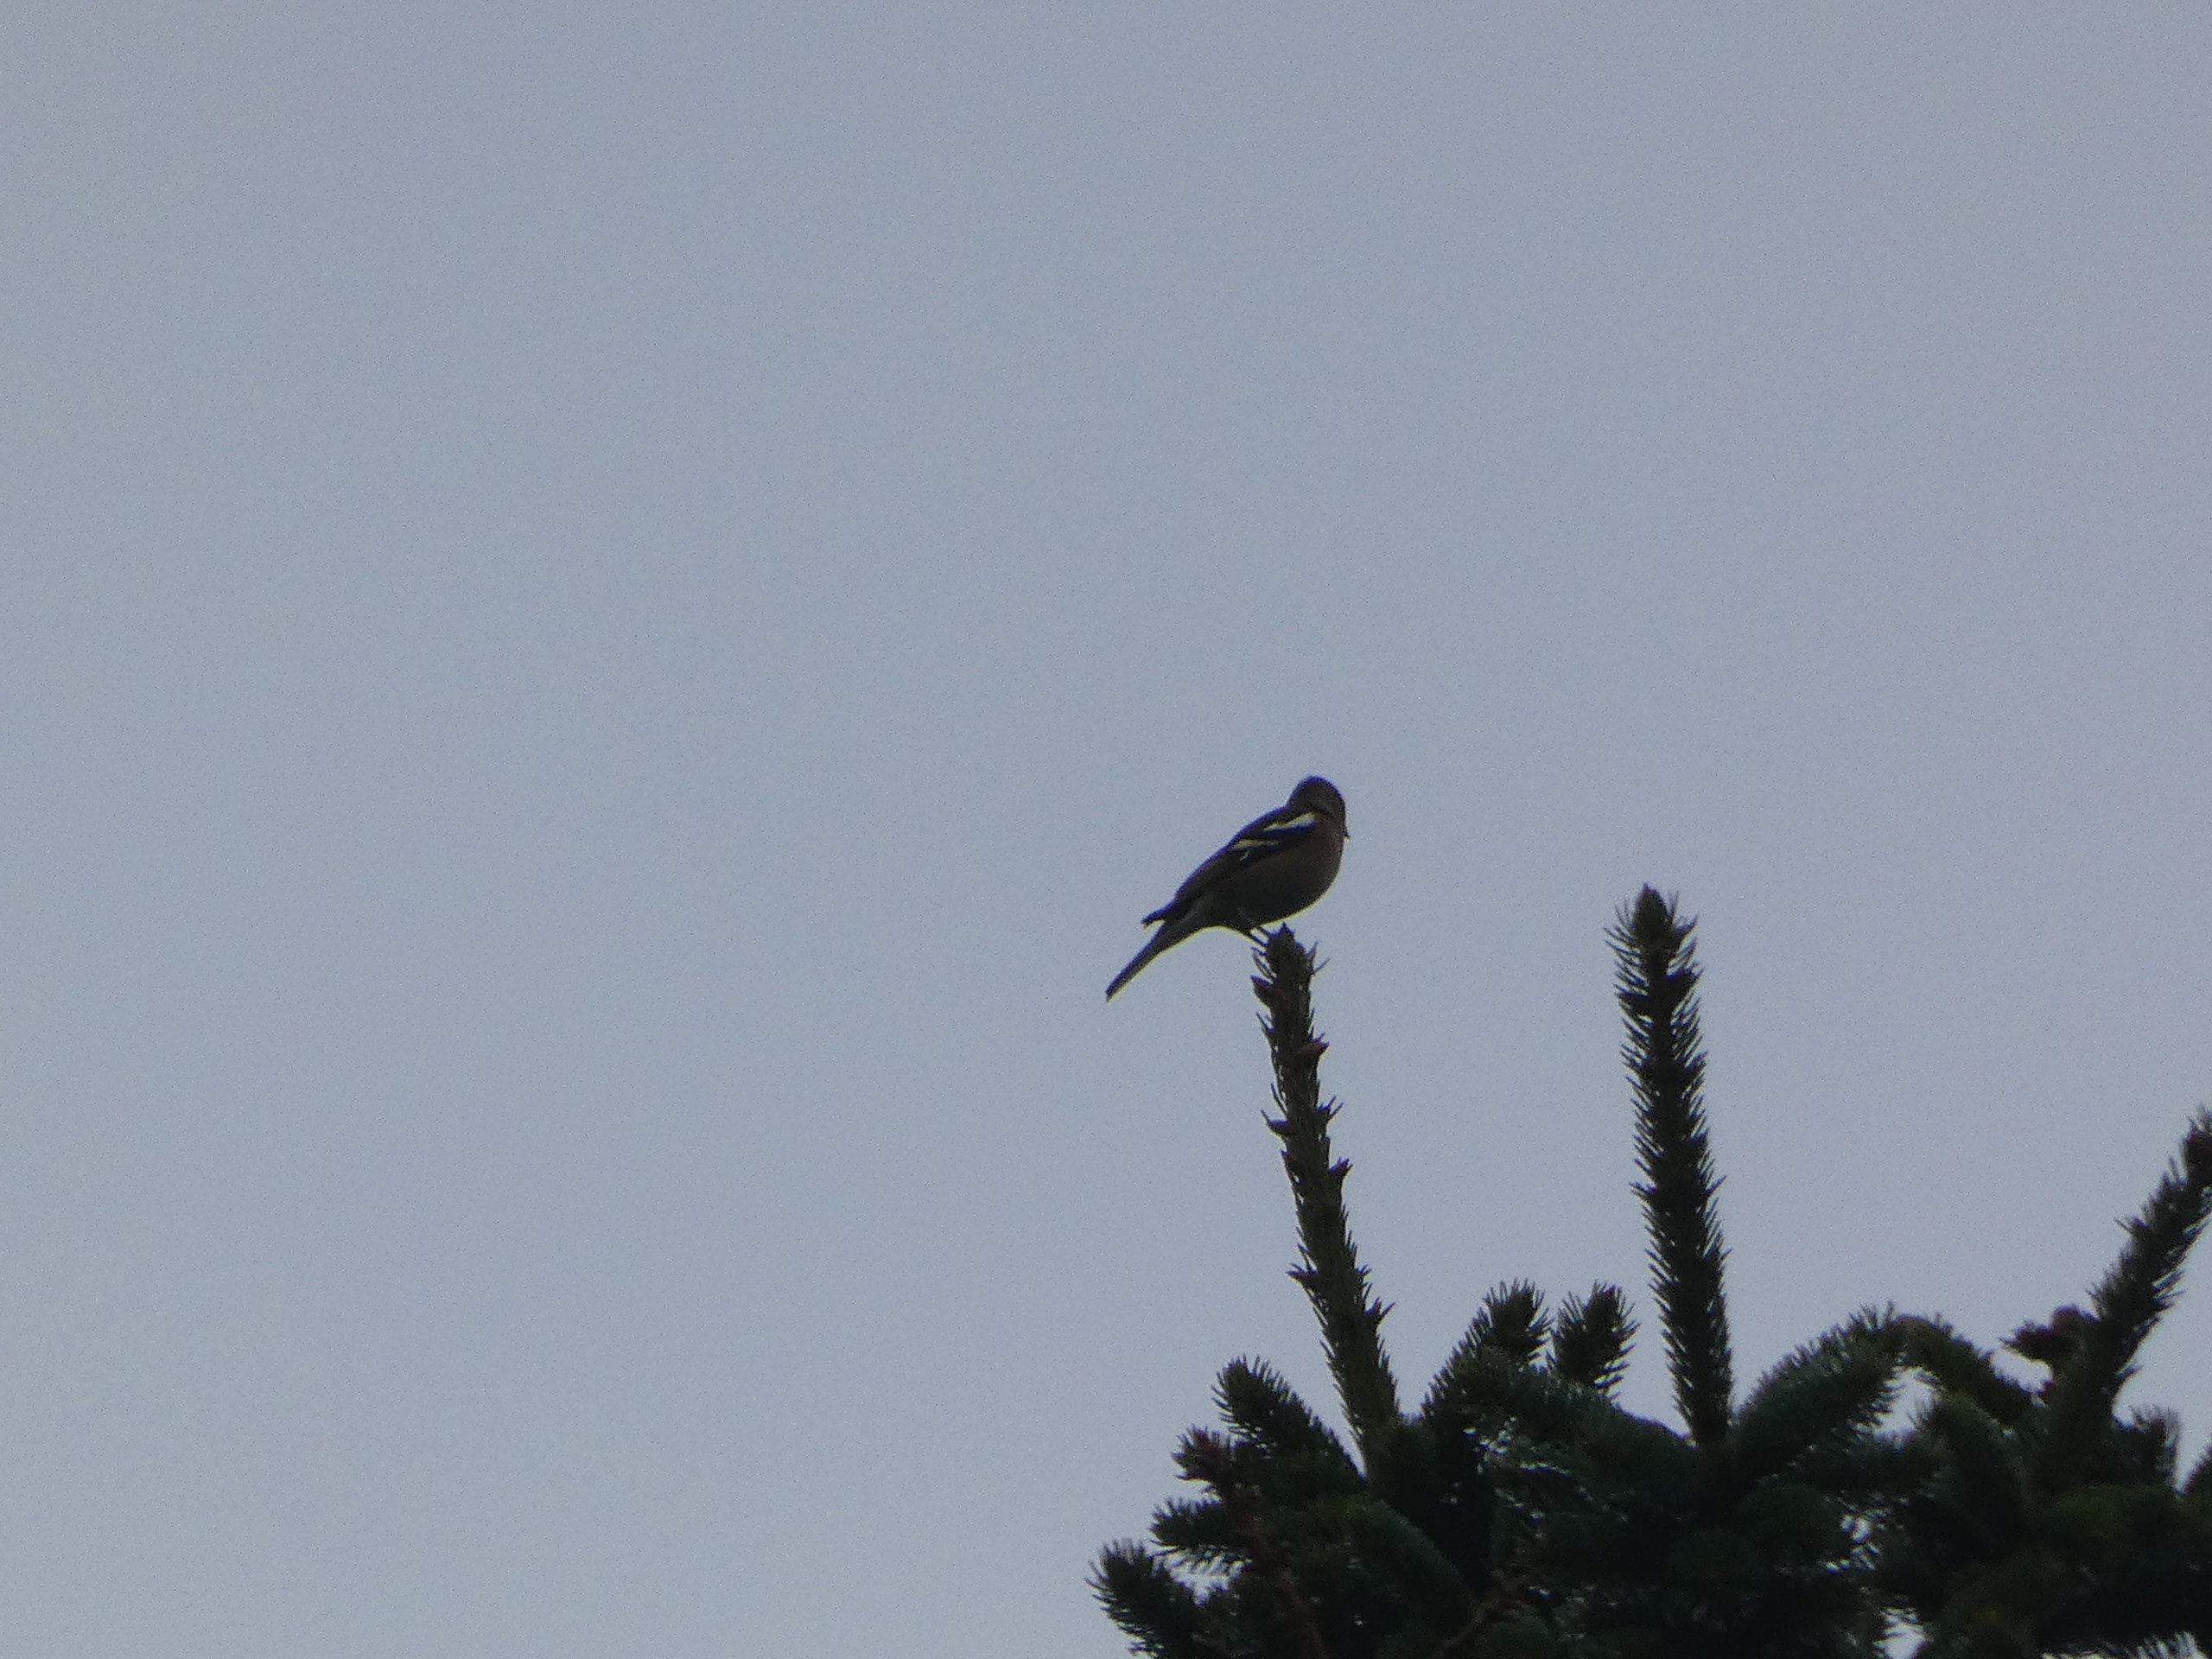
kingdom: Animalia
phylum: Chordata
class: Aves
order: Passeriformes
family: Fringillidae
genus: Fringilla
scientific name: Fringilla coelebs
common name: Bogfinke
